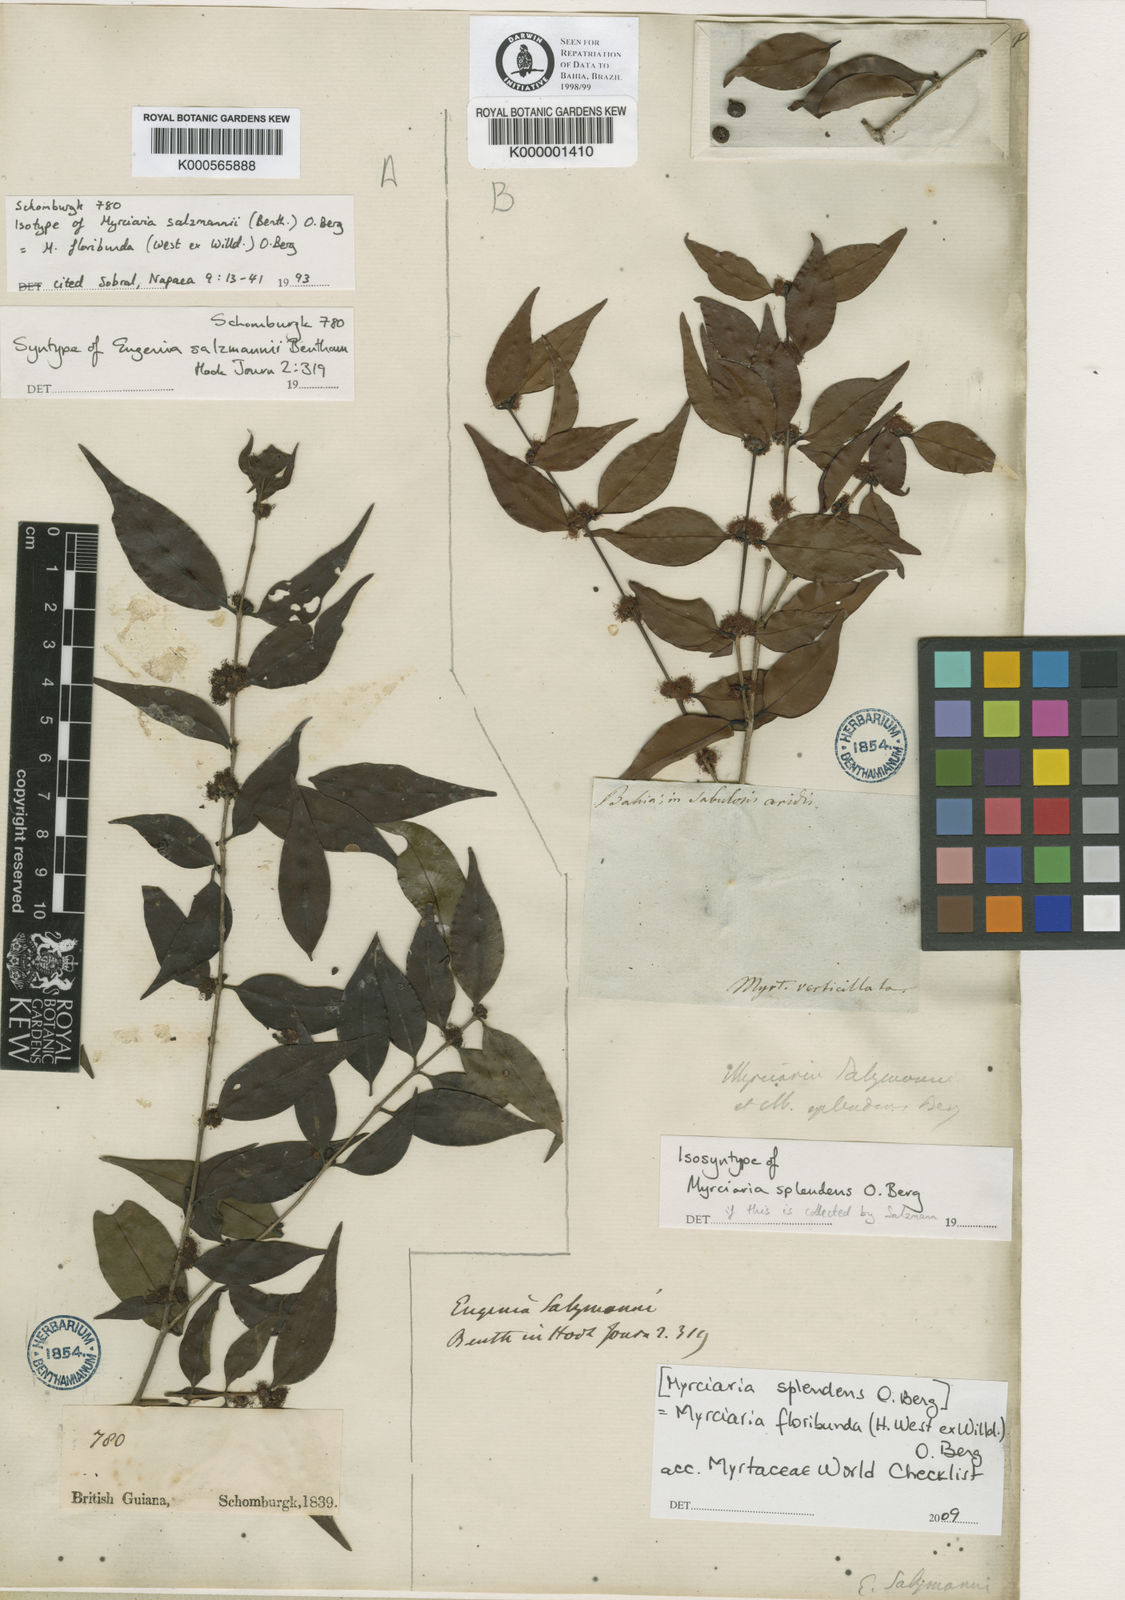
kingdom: Plantae
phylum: Tracheophyta
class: Magnoliopsida
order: Myrtales
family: Myrtaceae
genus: Myrciaria
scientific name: Myrciaria floribunda
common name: Guavaberry
